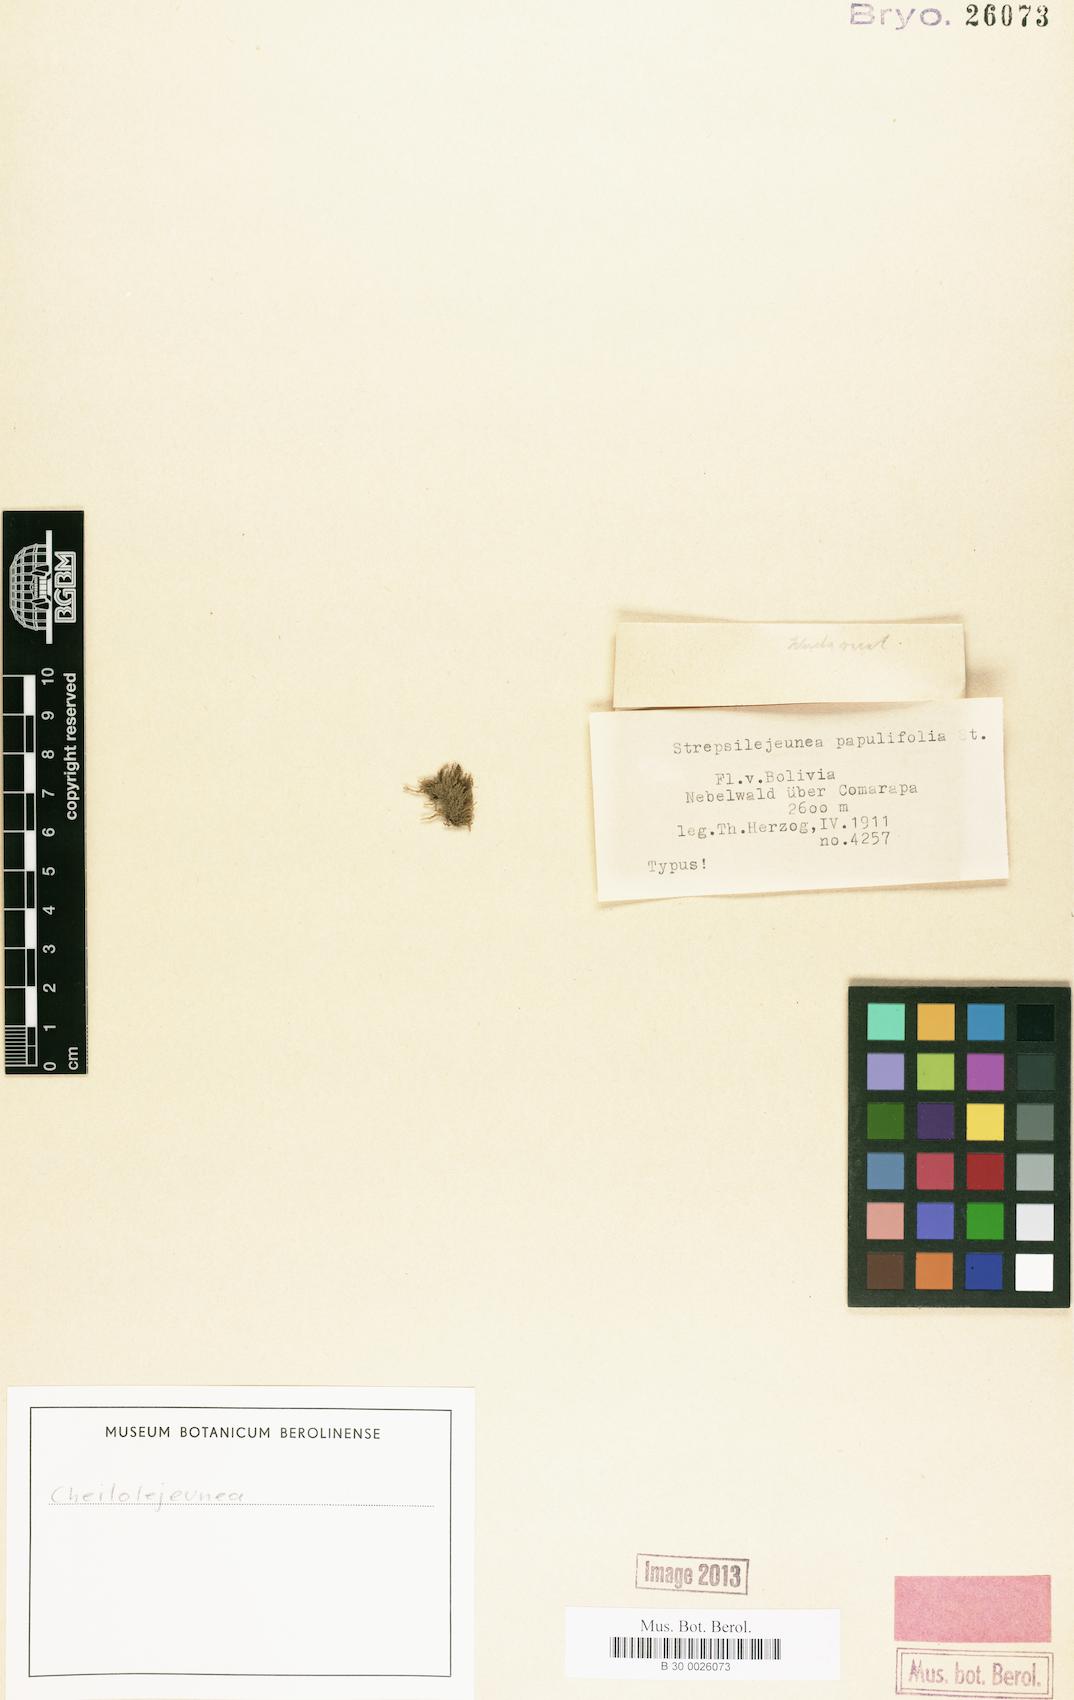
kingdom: Plantae
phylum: Marchantiophyta
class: Jungermanniopsida
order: Porellales
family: Lejeuneaceae
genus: Cheilolejeunea
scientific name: Cheilolejeunea
